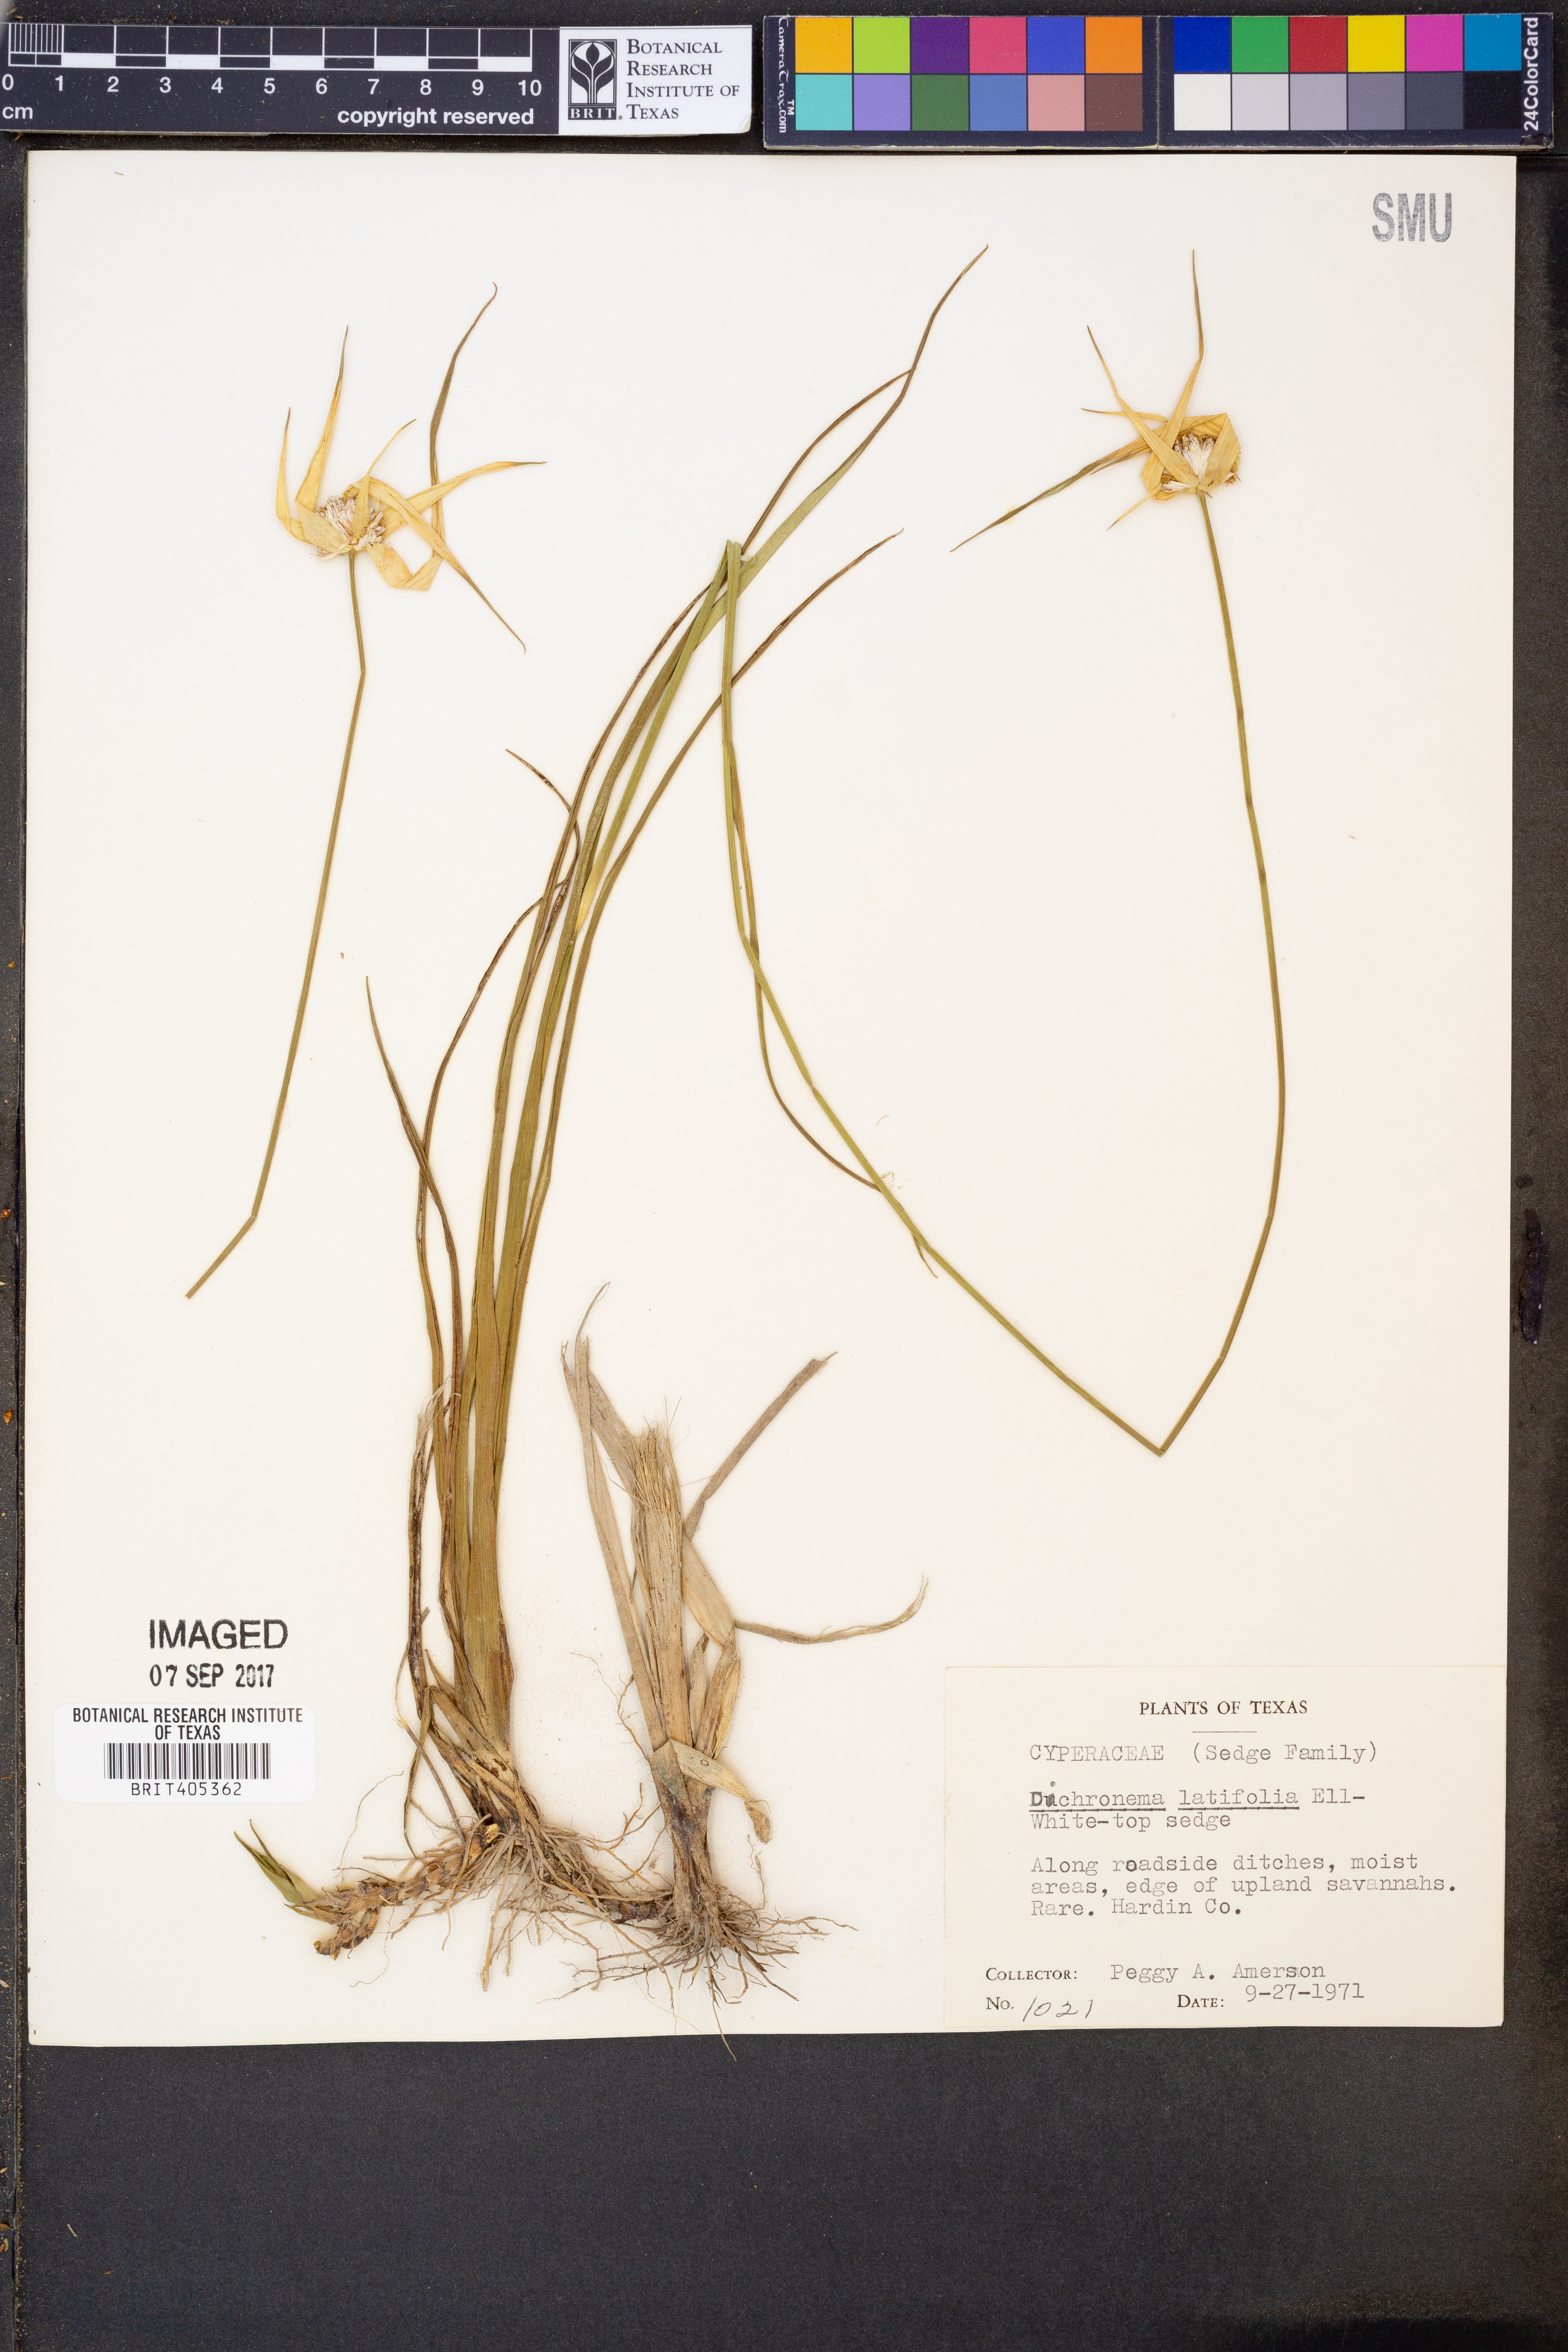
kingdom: Plantae
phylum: Tracheophyta
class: Liliopsida
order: Poales
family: Cyperaceae
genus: Rhynchospora
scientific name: Rhynchospora latifolia
